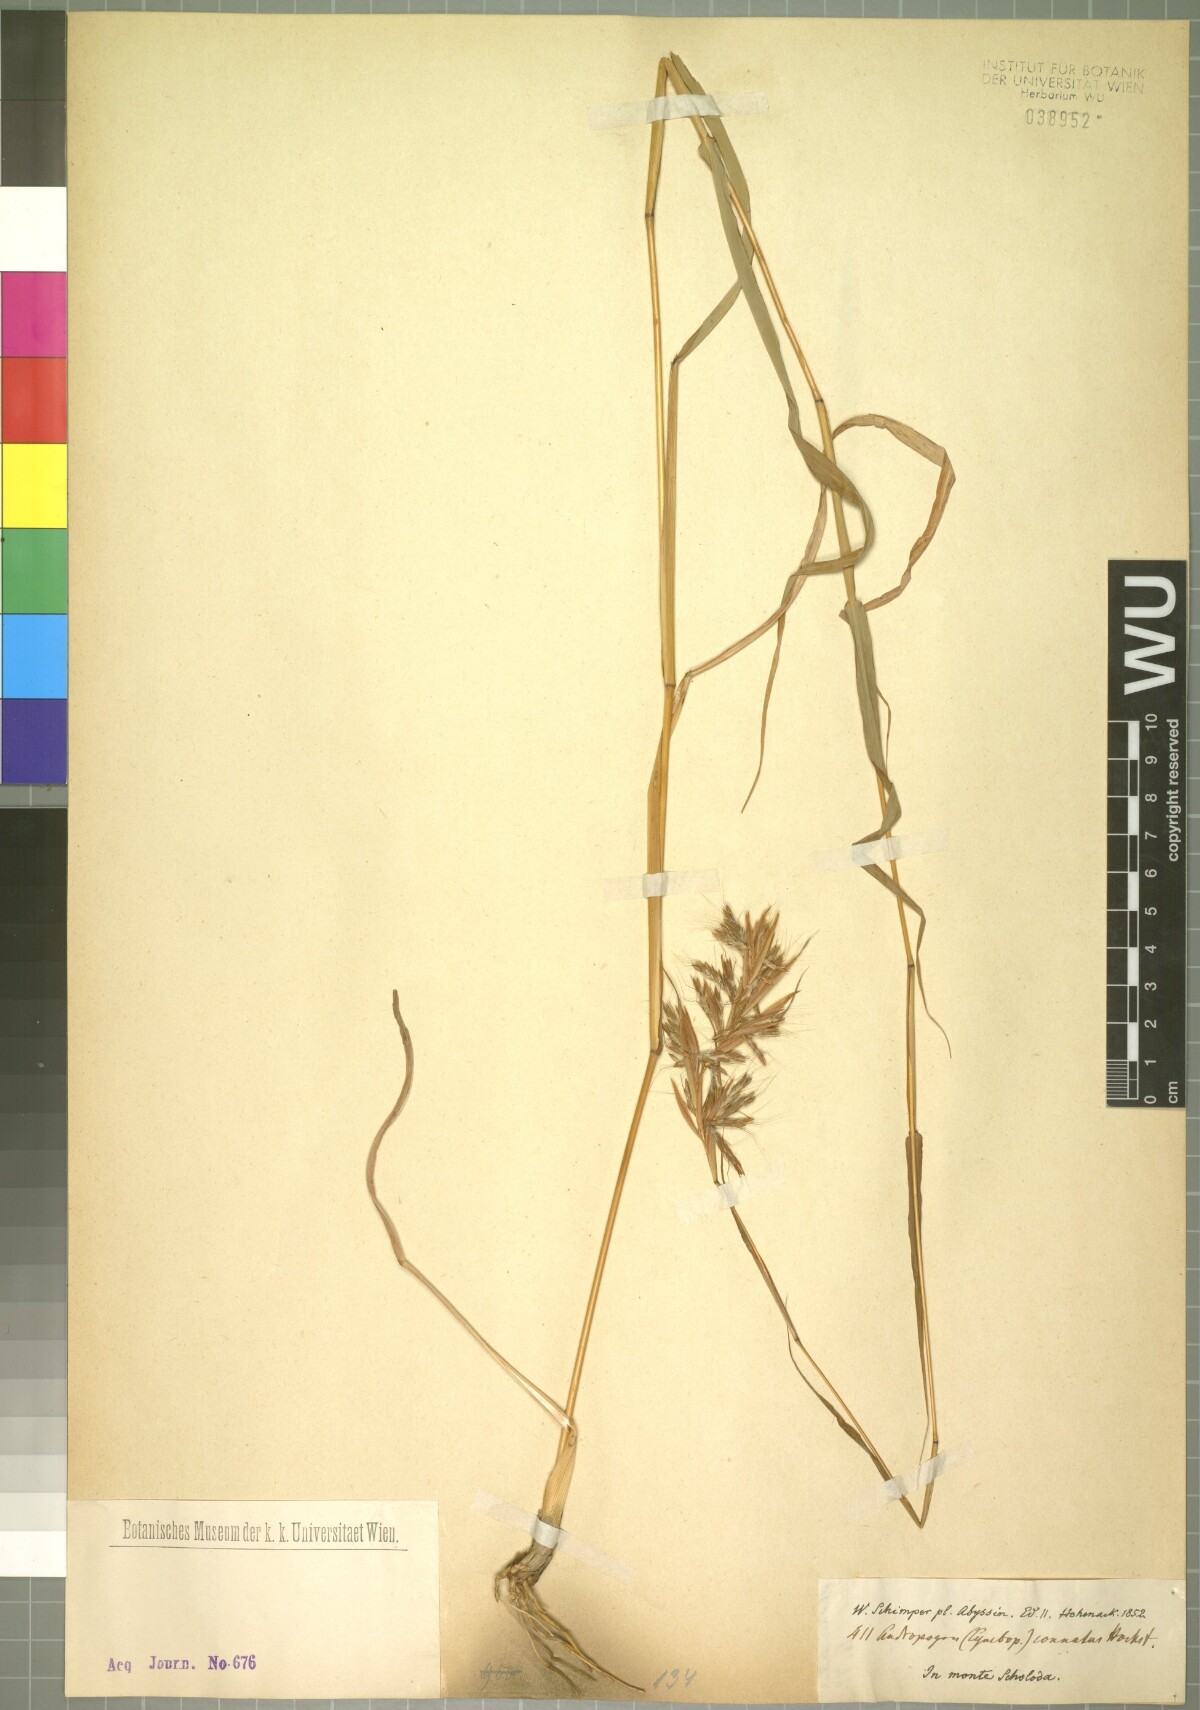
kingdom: Plantae
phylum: Tracheophyta
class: Liliopsida
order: Poales
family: Poaceae
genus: Cymbopogon
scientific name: Cymbopogon caesius
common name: Kachi grass
